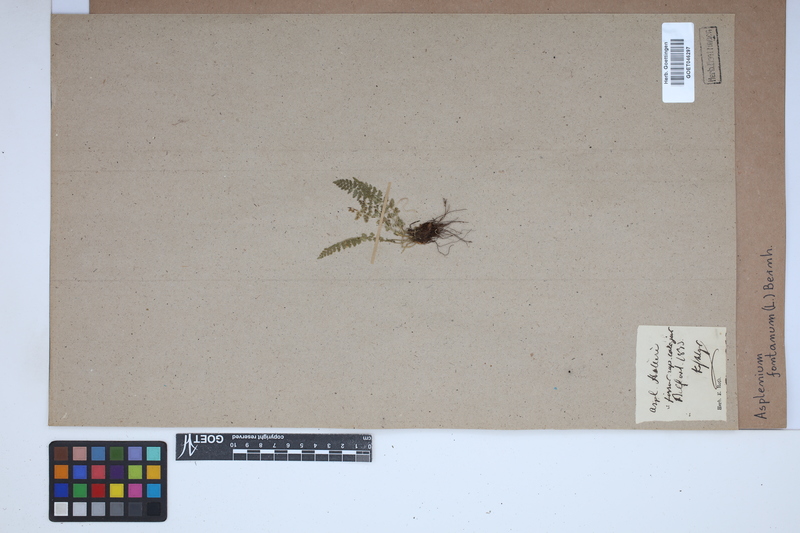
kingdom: Plantae
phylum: Tracheophyta
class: Polypodiopsida
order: Polypodiales
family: Aspleniaceae
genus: Asplenium
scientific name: Asplenium fontanum
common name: Fountain spleenwort
